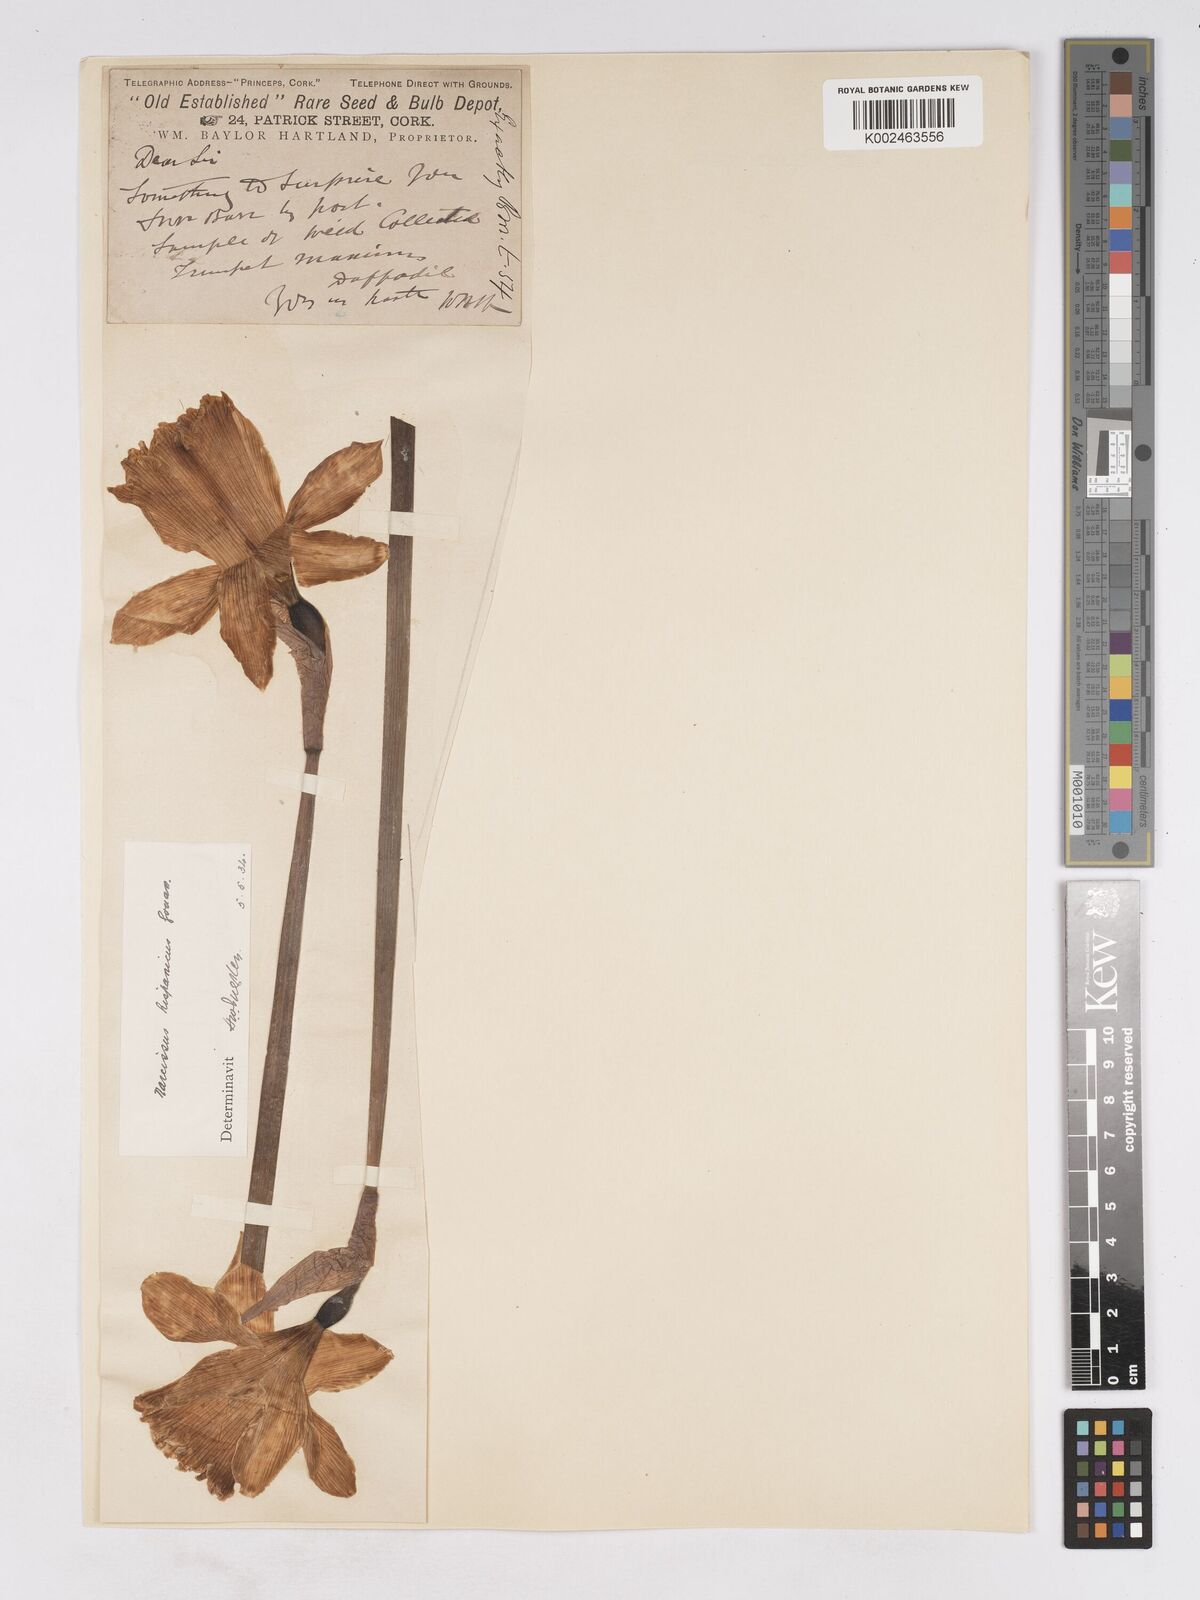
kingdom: Plantae
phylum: Tracheophyta
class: Liliopsida
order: Asparagales
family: Amaryllidaceae
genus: Narcissus
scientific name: Narcissus hispanicus
